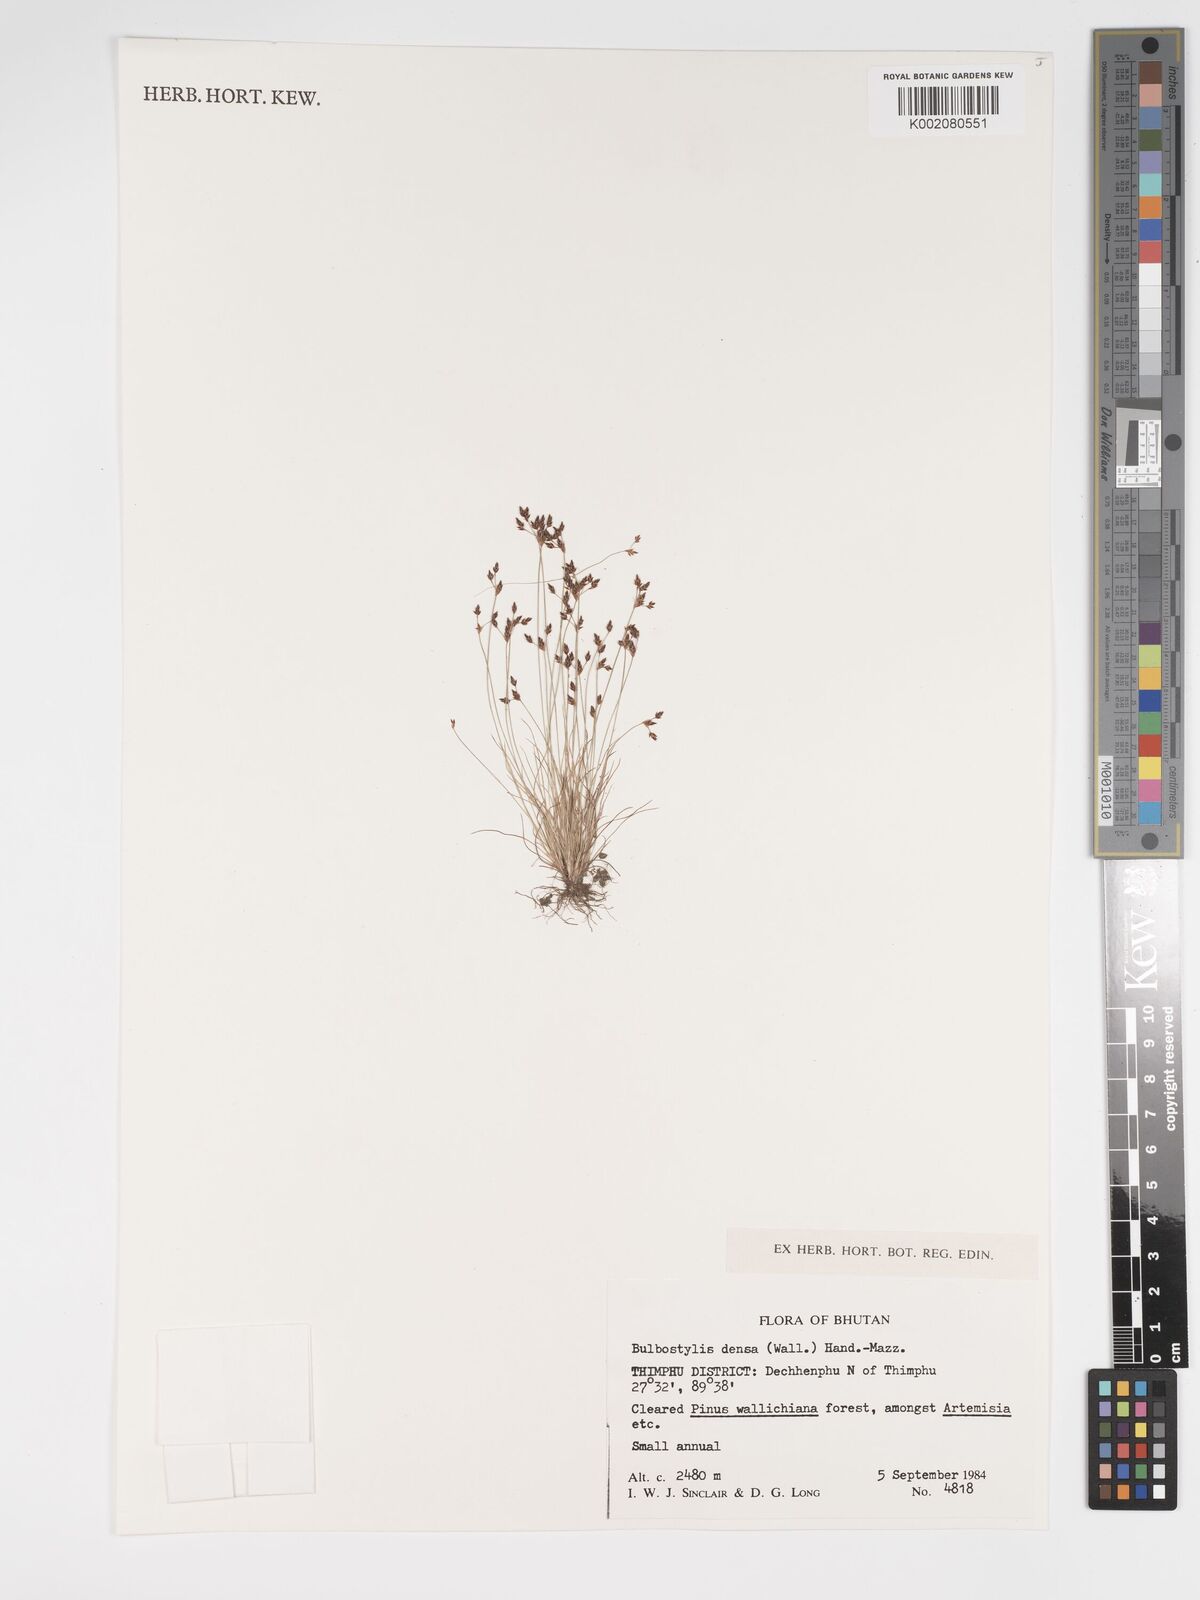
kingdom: Plantae
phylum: Tracheophyta
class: Liliopsida
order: Poales
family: Cyperaceae
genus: Bulbostylis
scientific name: Bulbostylis densa
